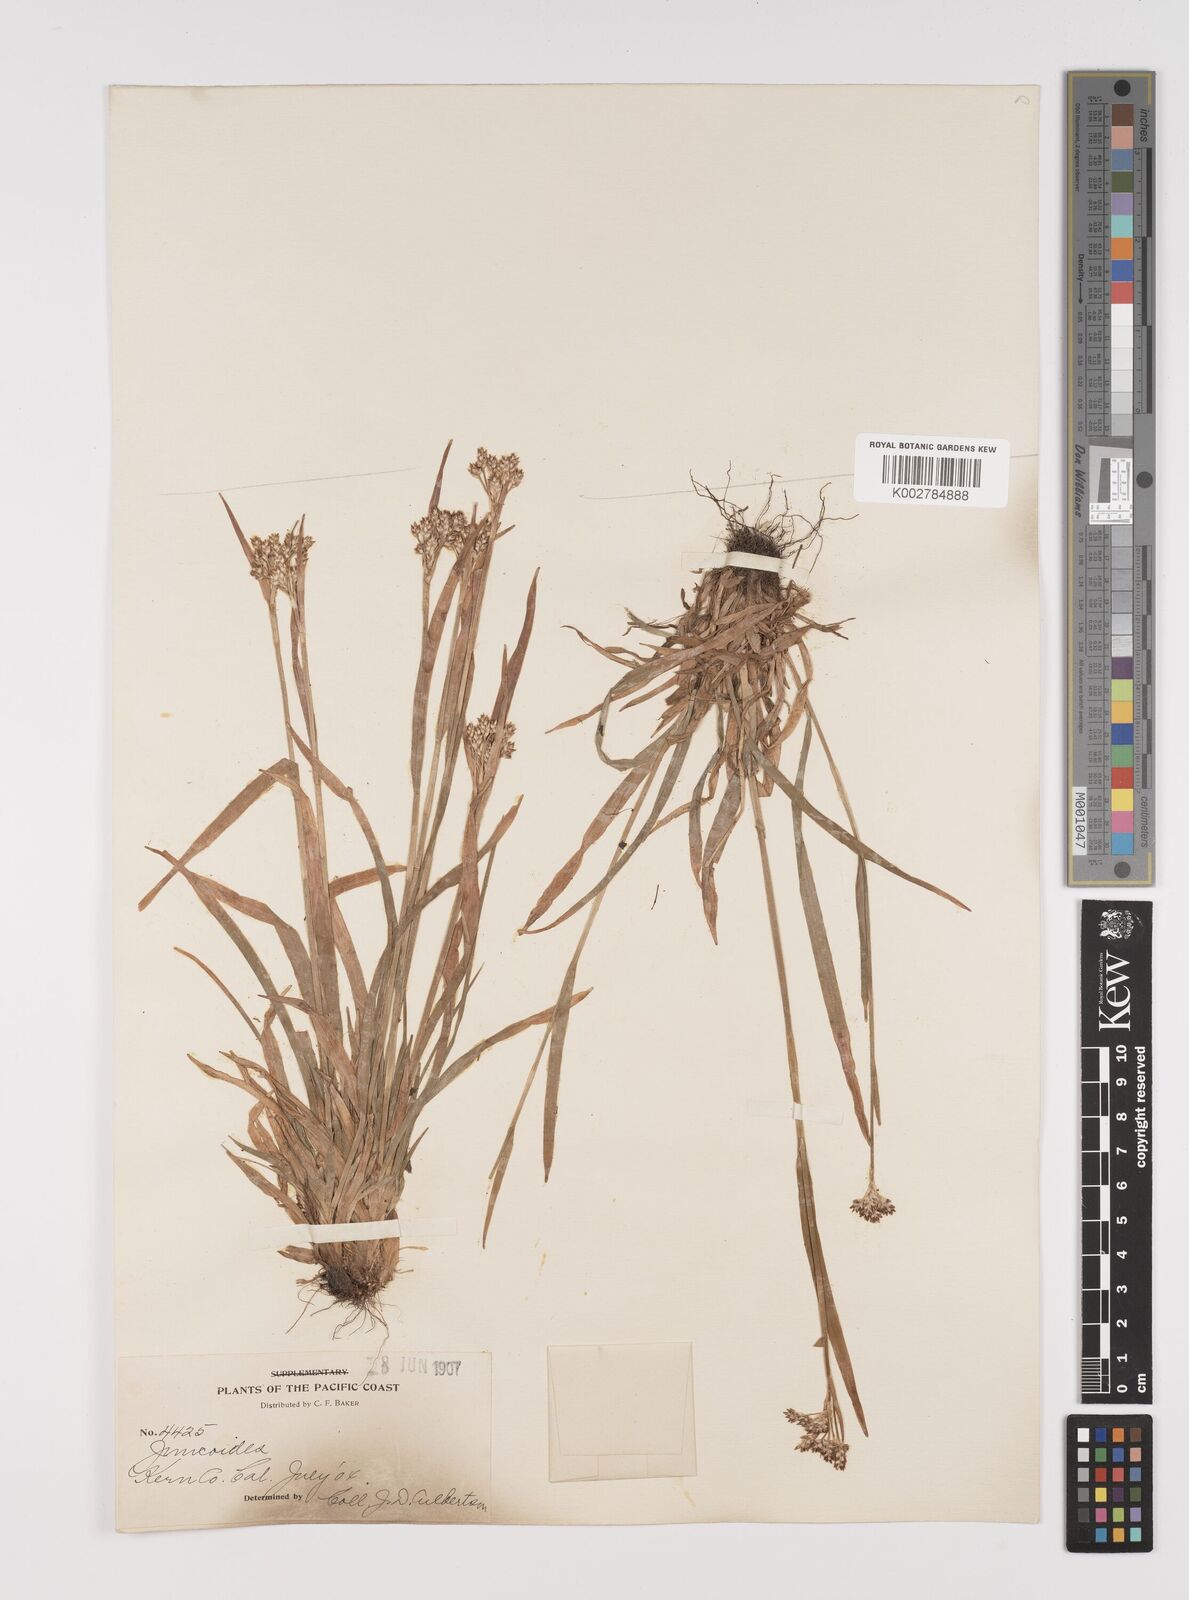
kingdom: Plantae
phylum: Tracheophyta
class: Liliopsida
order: Poales
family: Juncaceae
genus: Luzula
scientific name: Luzula glabrata
